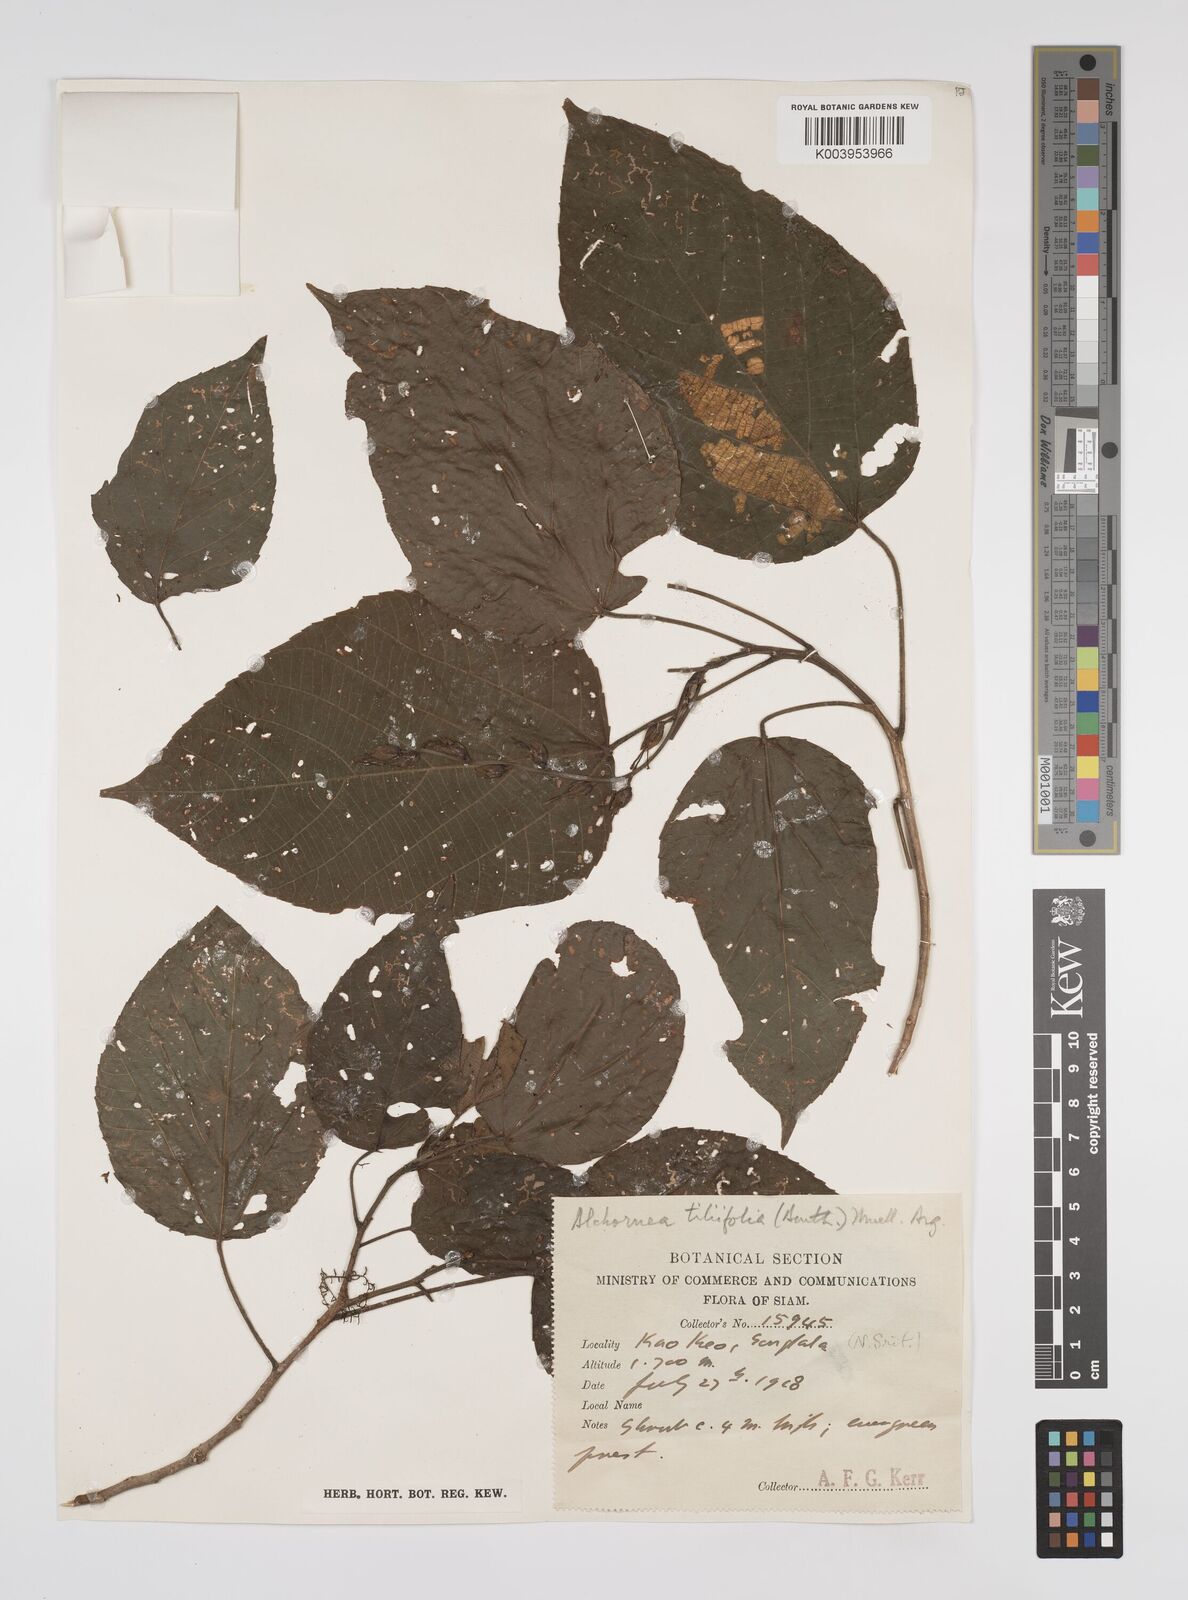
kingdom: Plantae
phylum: Tracheophyta
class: Magnoliopsida
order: Malpighiales
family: Euphorbiaceae
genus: Alchornea
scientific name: Alchornea tiliifolia
